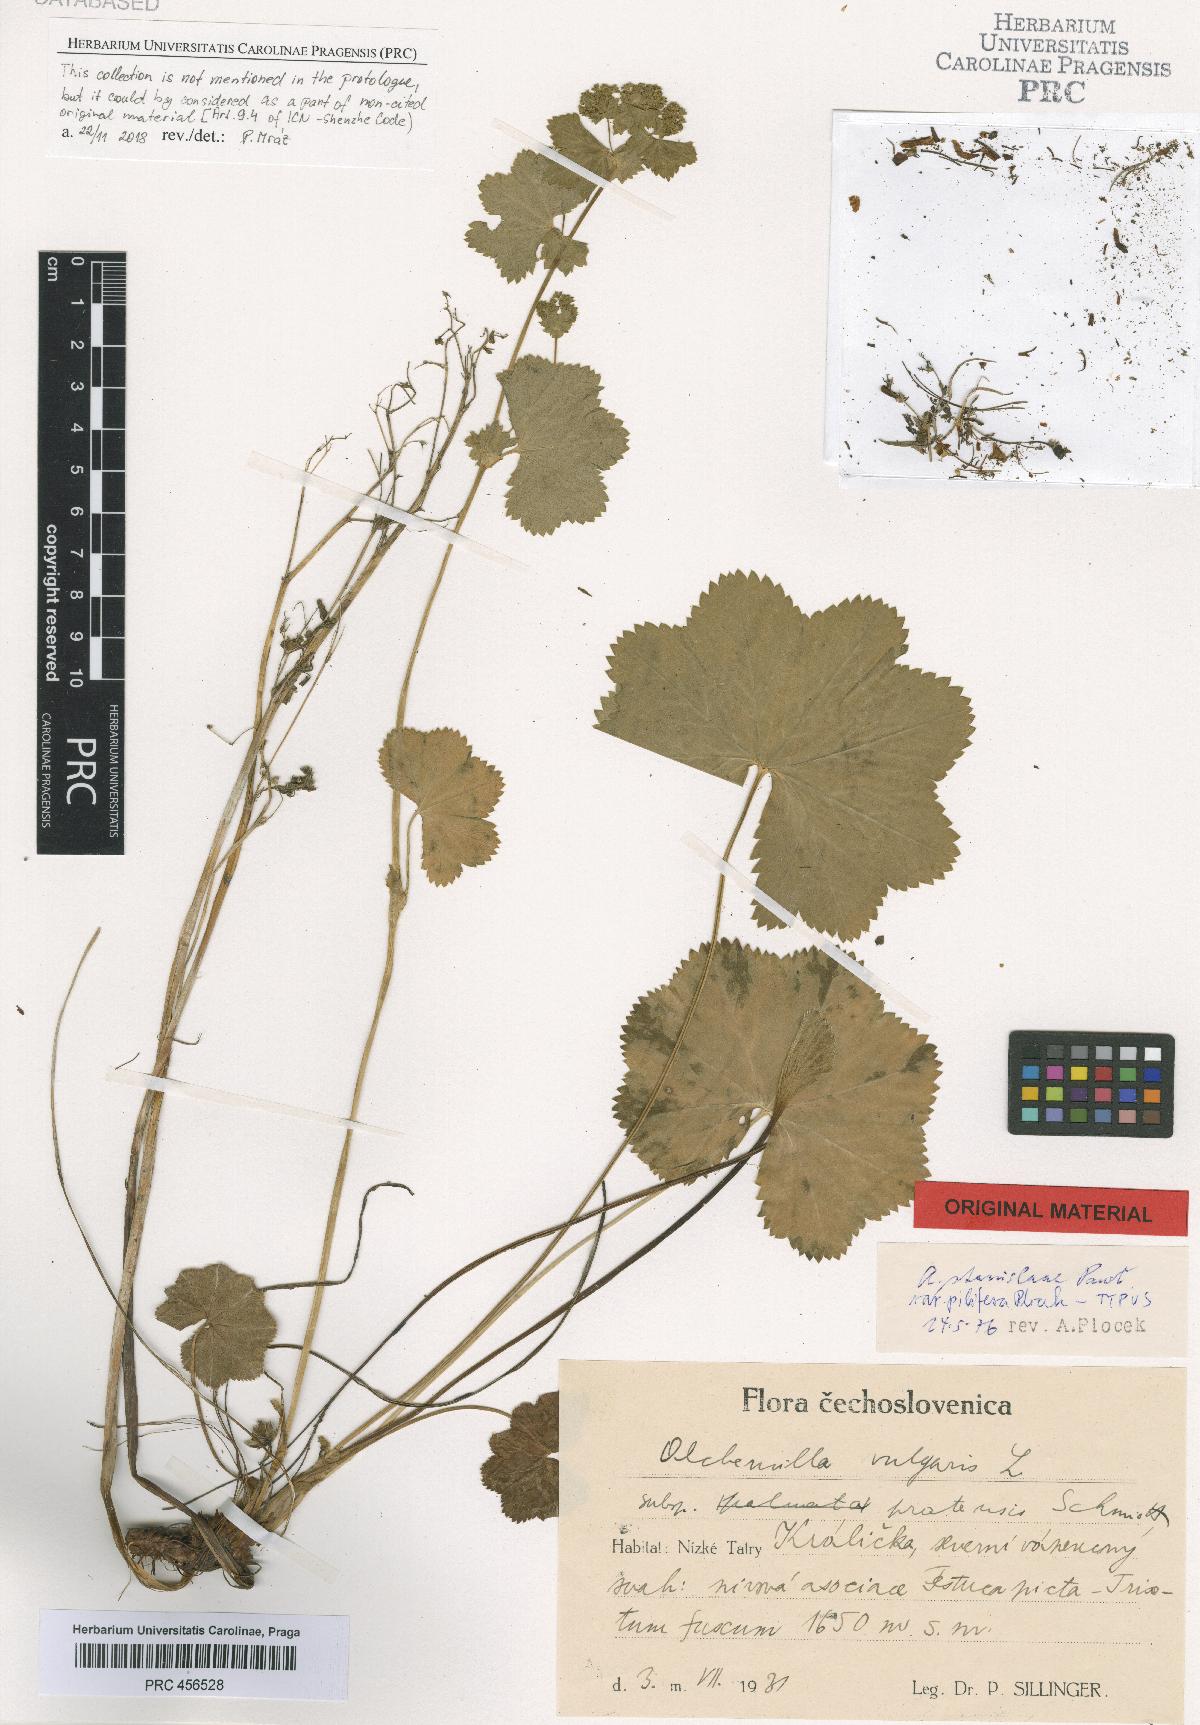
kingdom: Plantae
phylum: Tracheophyta
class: Magnoliopsida
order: Rosales
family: Rosaceae
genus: Alchemilla
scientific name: Alchemilla stanislaae
